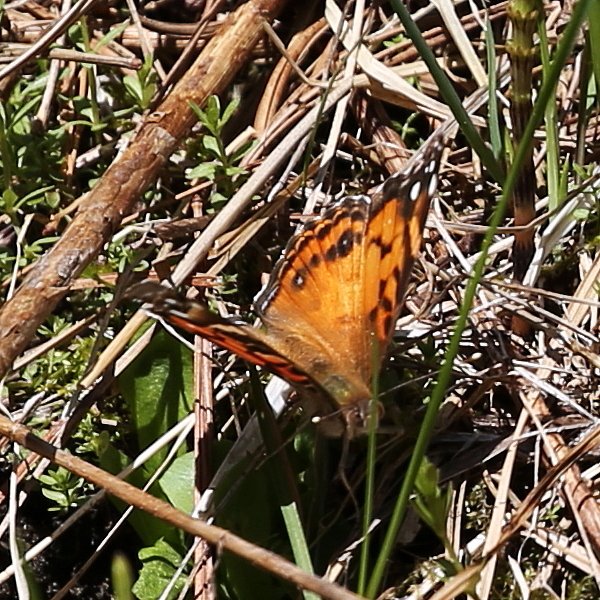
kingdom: Animalia
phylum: Arthropoda
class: Insecta
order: Lepidoptera
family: Nymphalidae
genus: Vanessa
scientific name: Vanessa virginiensis
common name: American Lady
